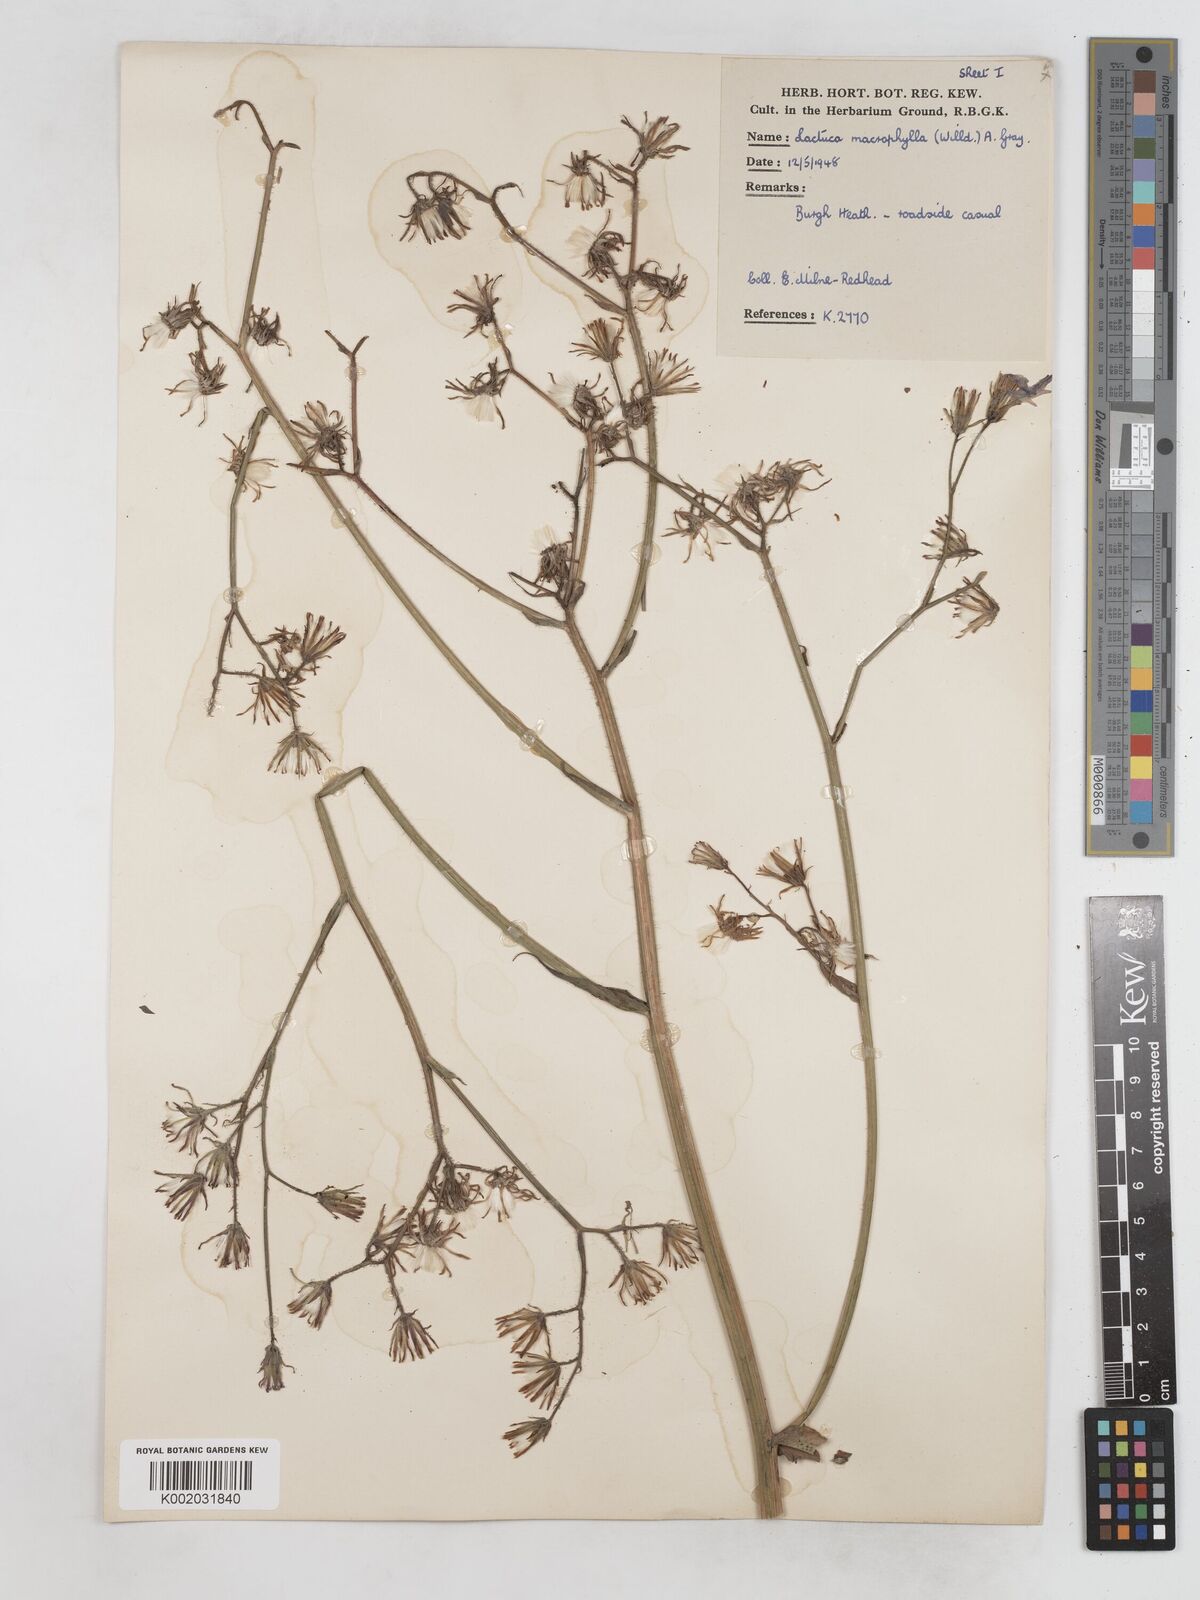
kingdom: Plantae
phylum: Tracheophyta
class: Magnoliopsida
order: Asterales
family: Asteraceae
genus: Lactuca
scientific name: Lactuca macrophylla
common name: Common blue-sow-thistle
